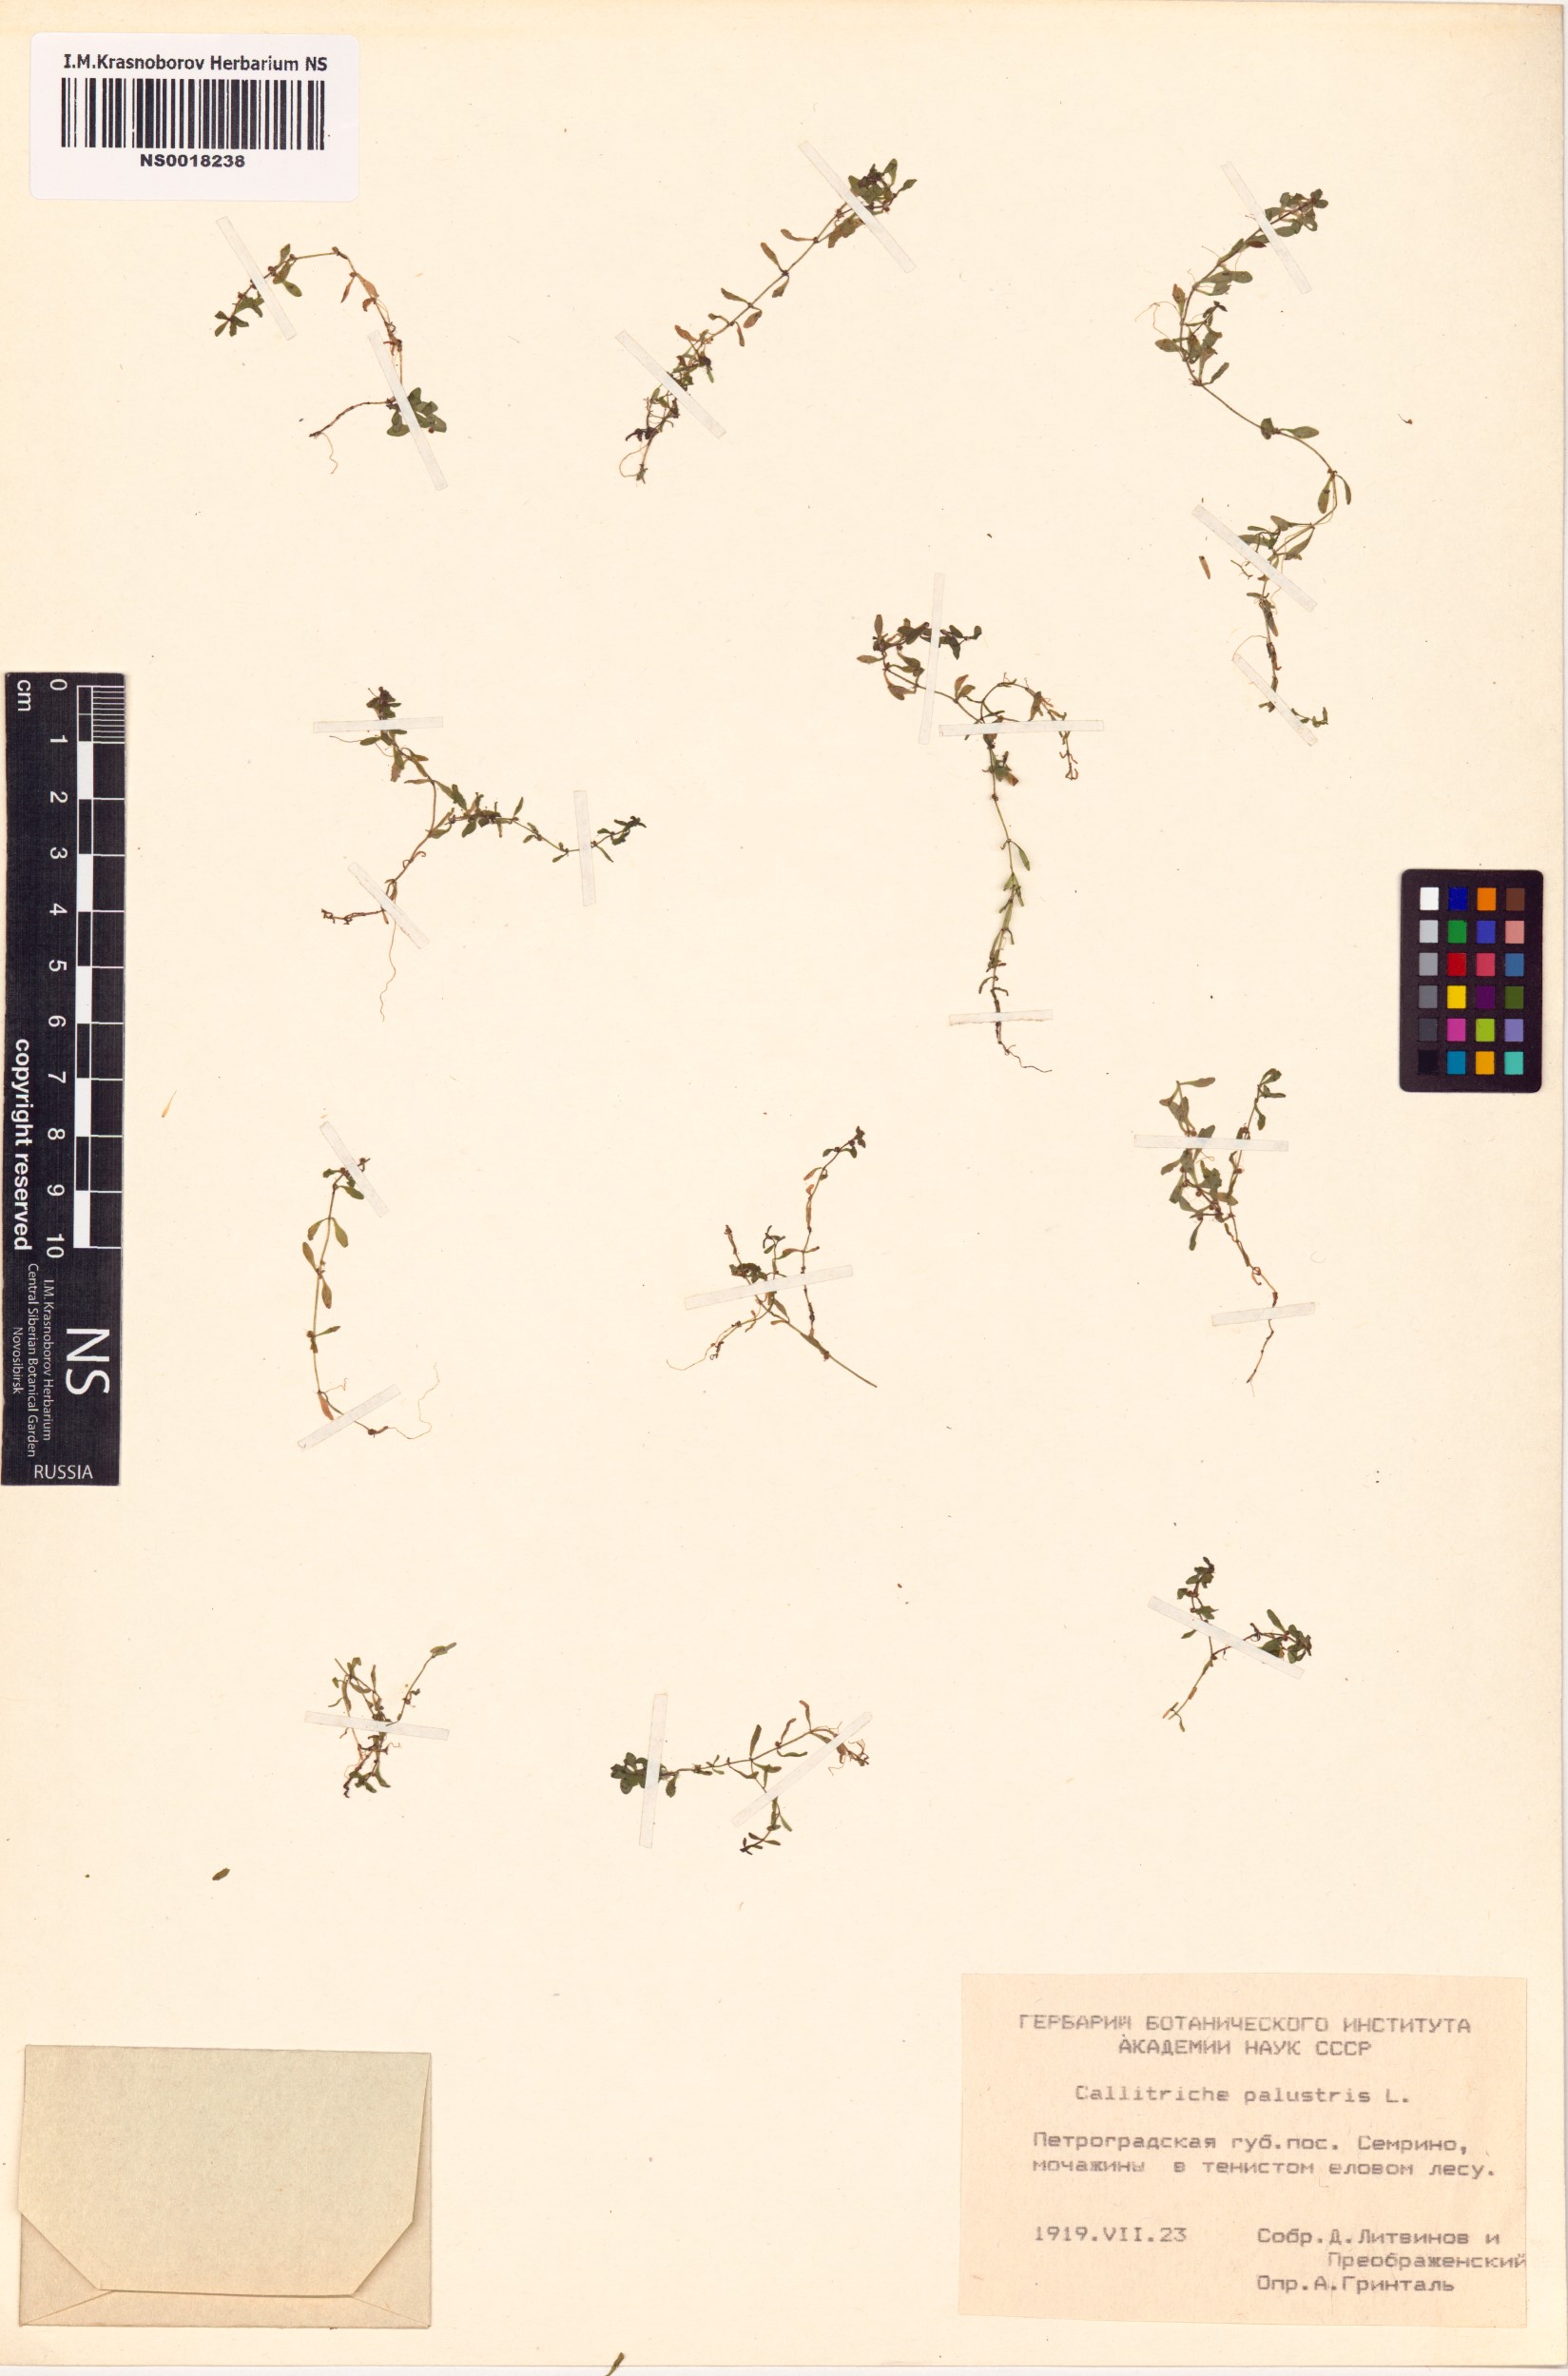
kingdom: Plantae
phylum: Tracheophyta
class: Magnoliopsida
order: Lamiales
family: Plantaginaceae
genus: Callitriche
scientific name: Callitriche palustris
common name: Spring water-starwort
